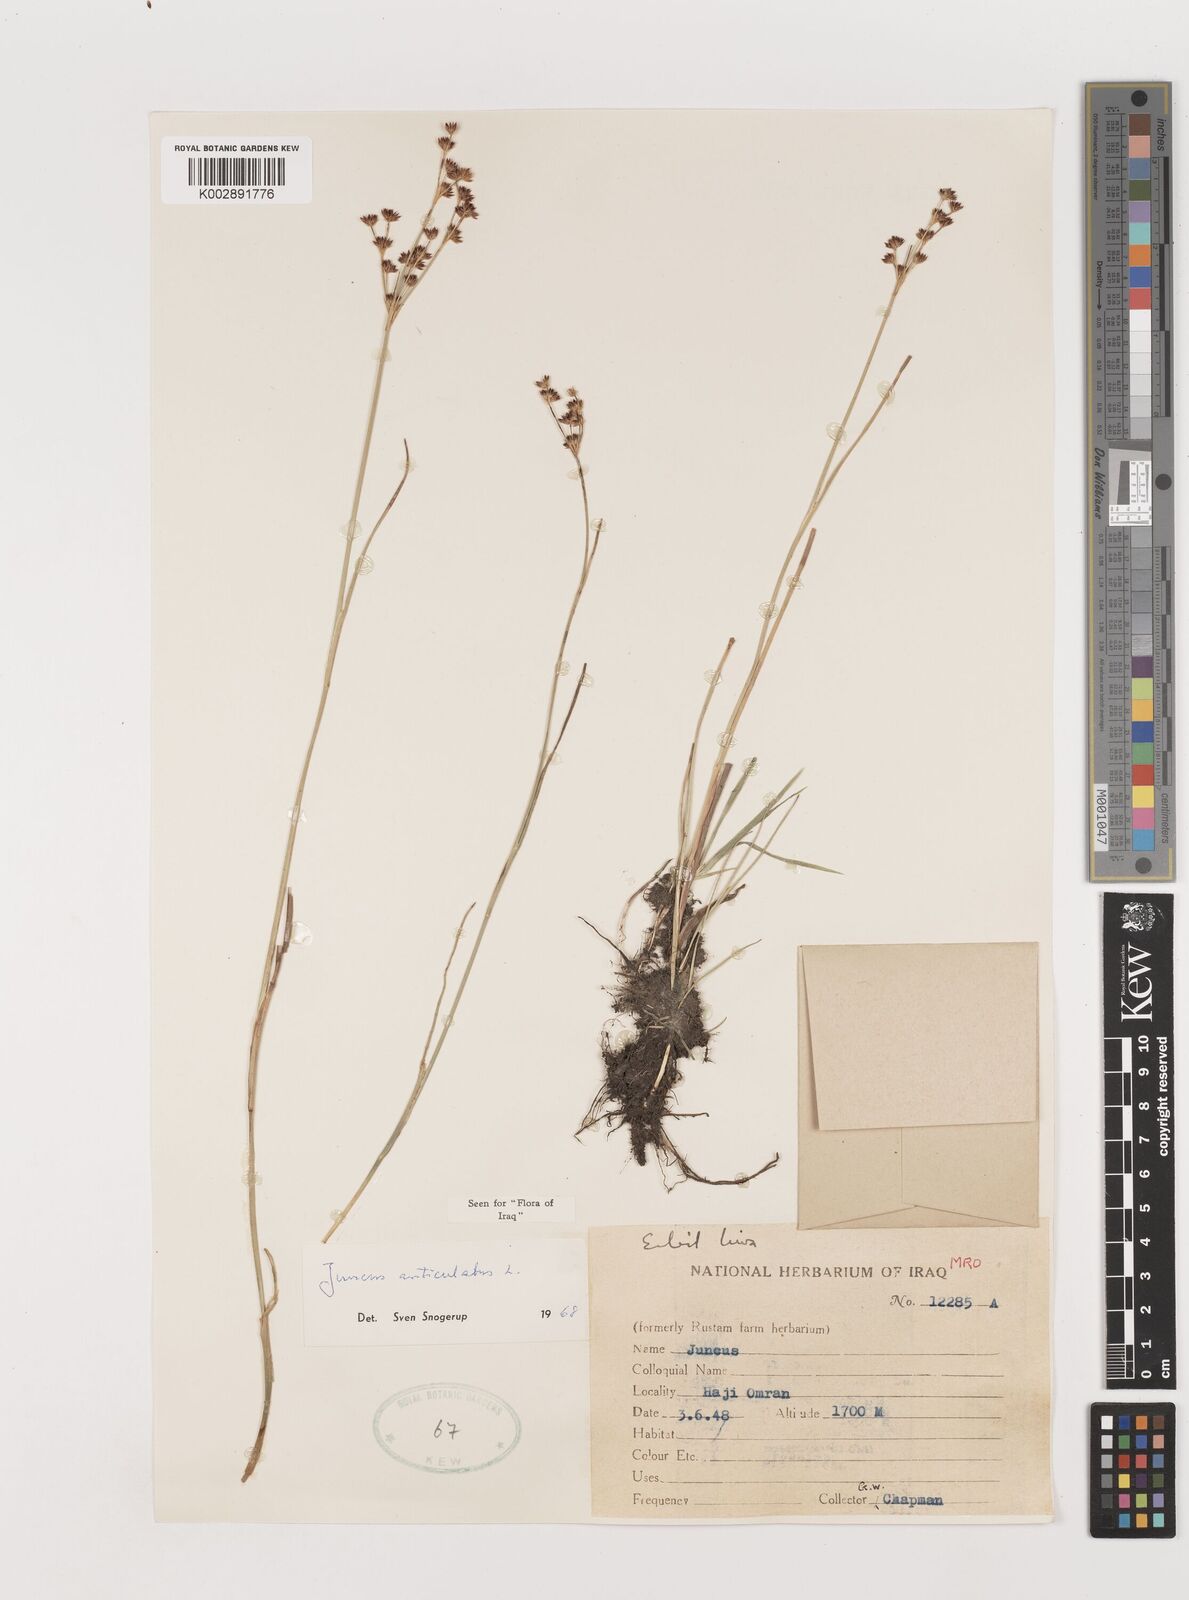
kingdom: Plantae
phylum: Tracheophyta
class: Liliopsida
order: Poales
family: Juncaceae
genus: Juncus
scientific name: Juncus articulatus
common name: Jointed rush
